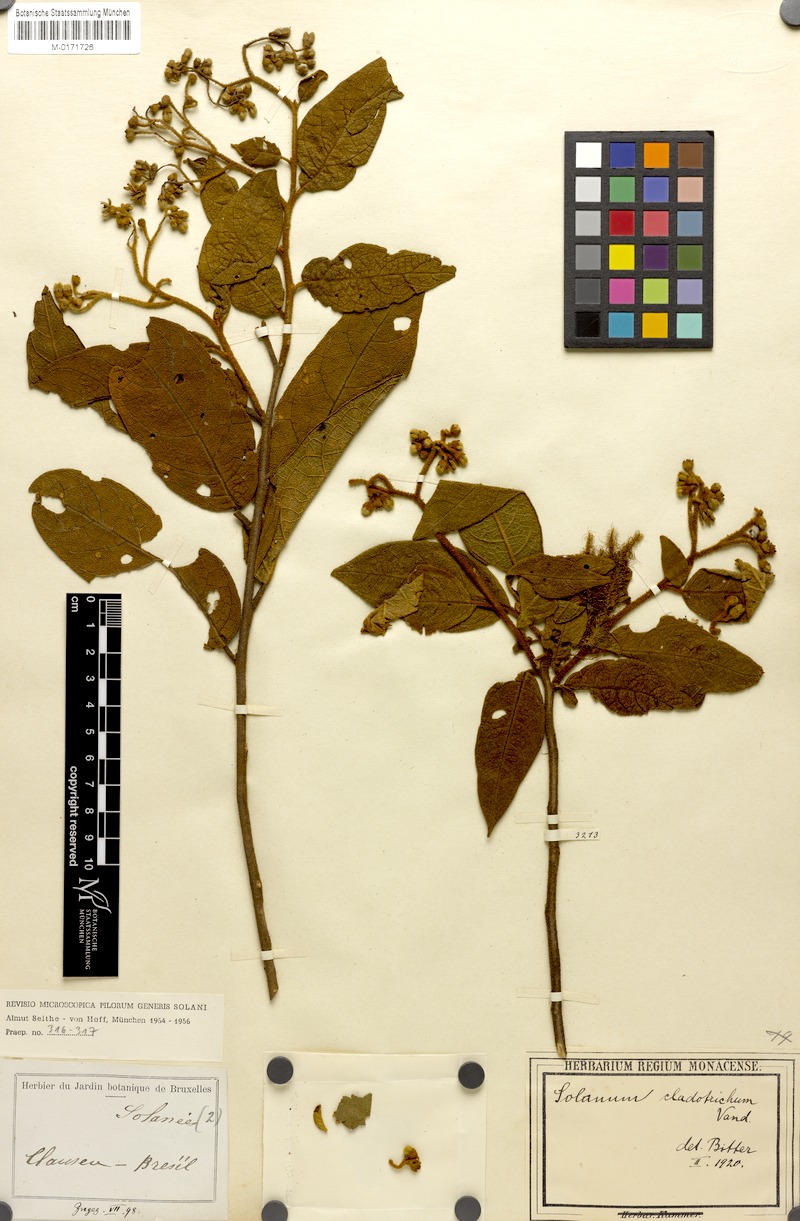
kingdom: Plantae
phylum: Tracheophyta
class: Magnoliopsida
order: Solanales
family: Solanaceae
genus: Lycianthes
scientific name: Lycianthes cladotrichota
